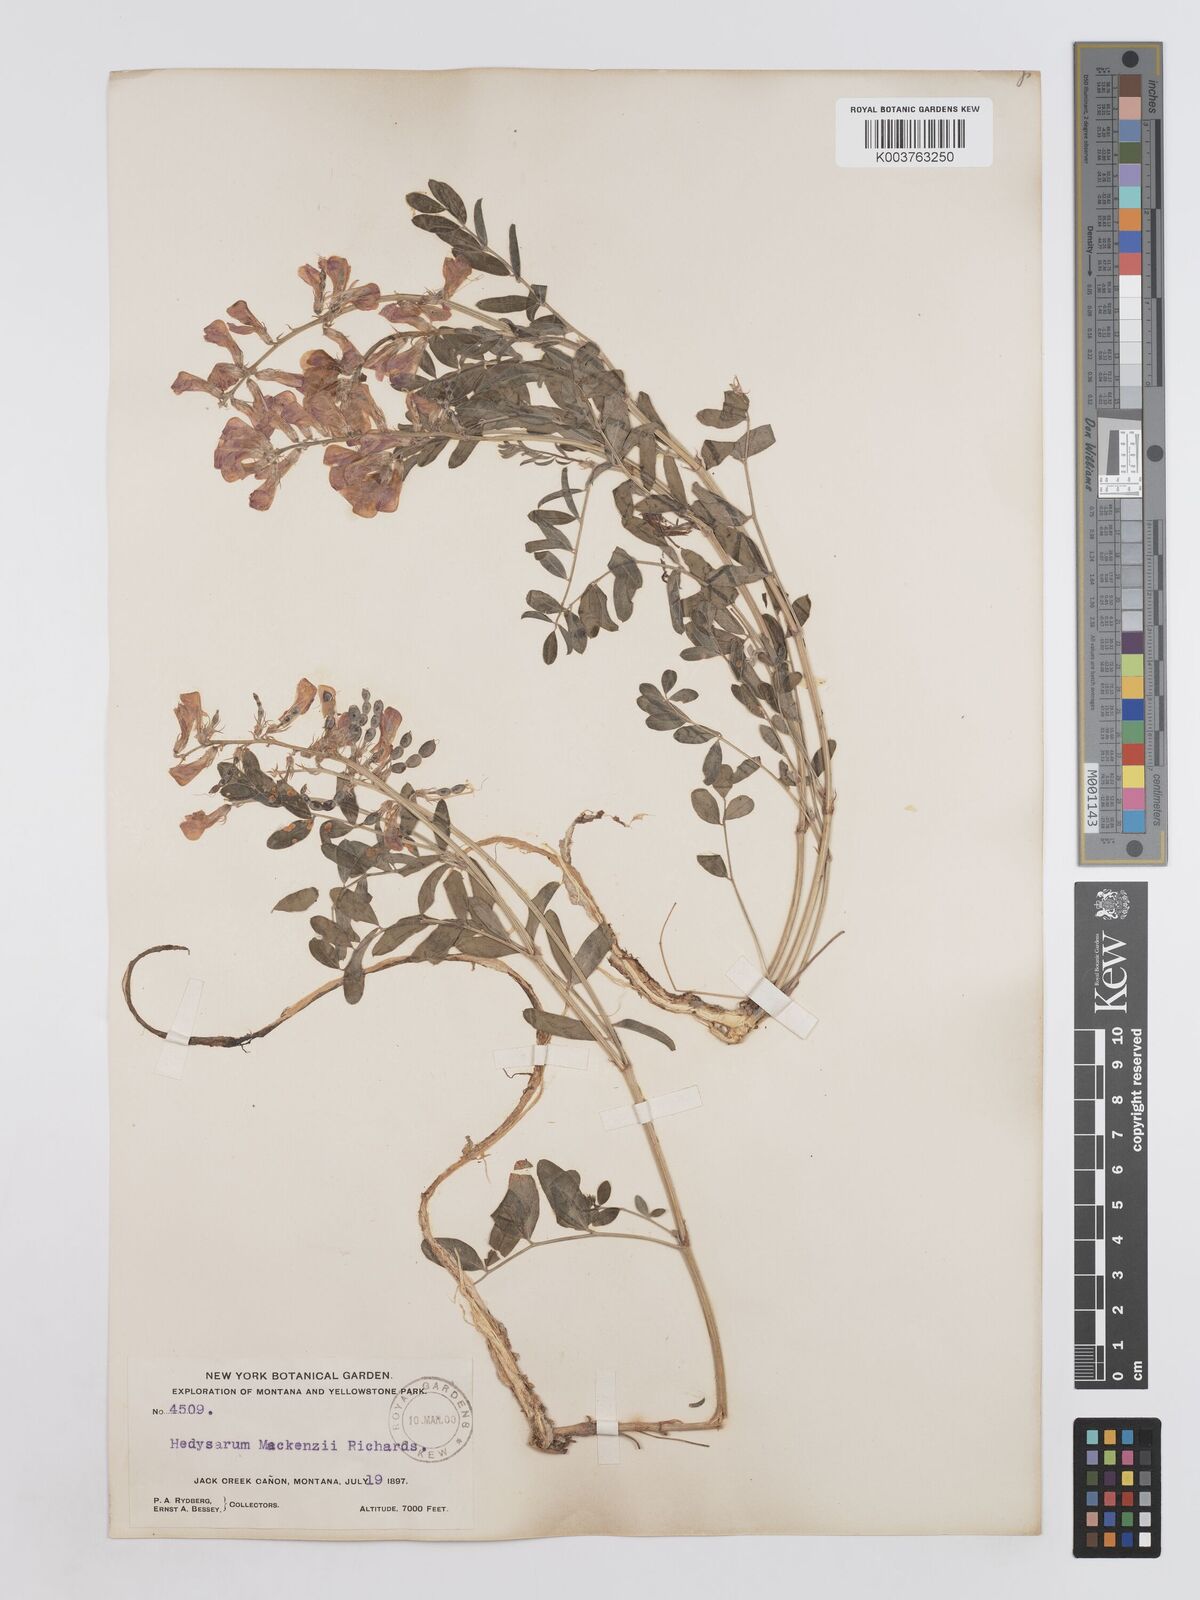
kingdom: Plantae
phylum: Tracheophyta
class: Magnoliopsida
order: Fabales
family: Fabaceae
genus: Hedysarum
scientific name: Hedysarum boreale
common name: Northern sweet-vetch
